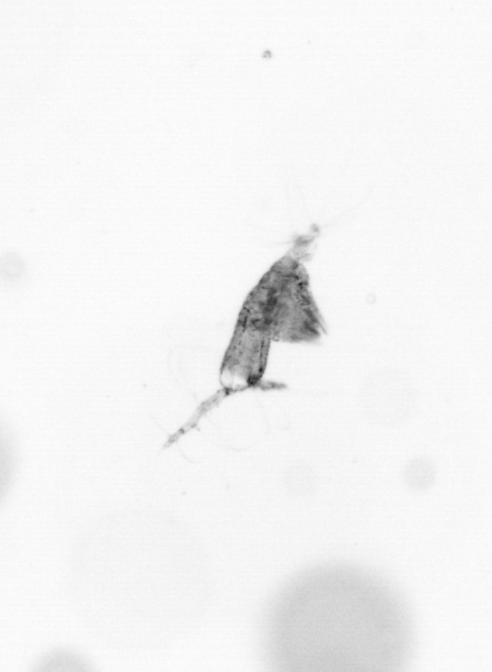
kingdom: Animalia
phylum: Arthropoda
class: Copepoda
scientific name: Copepoda
